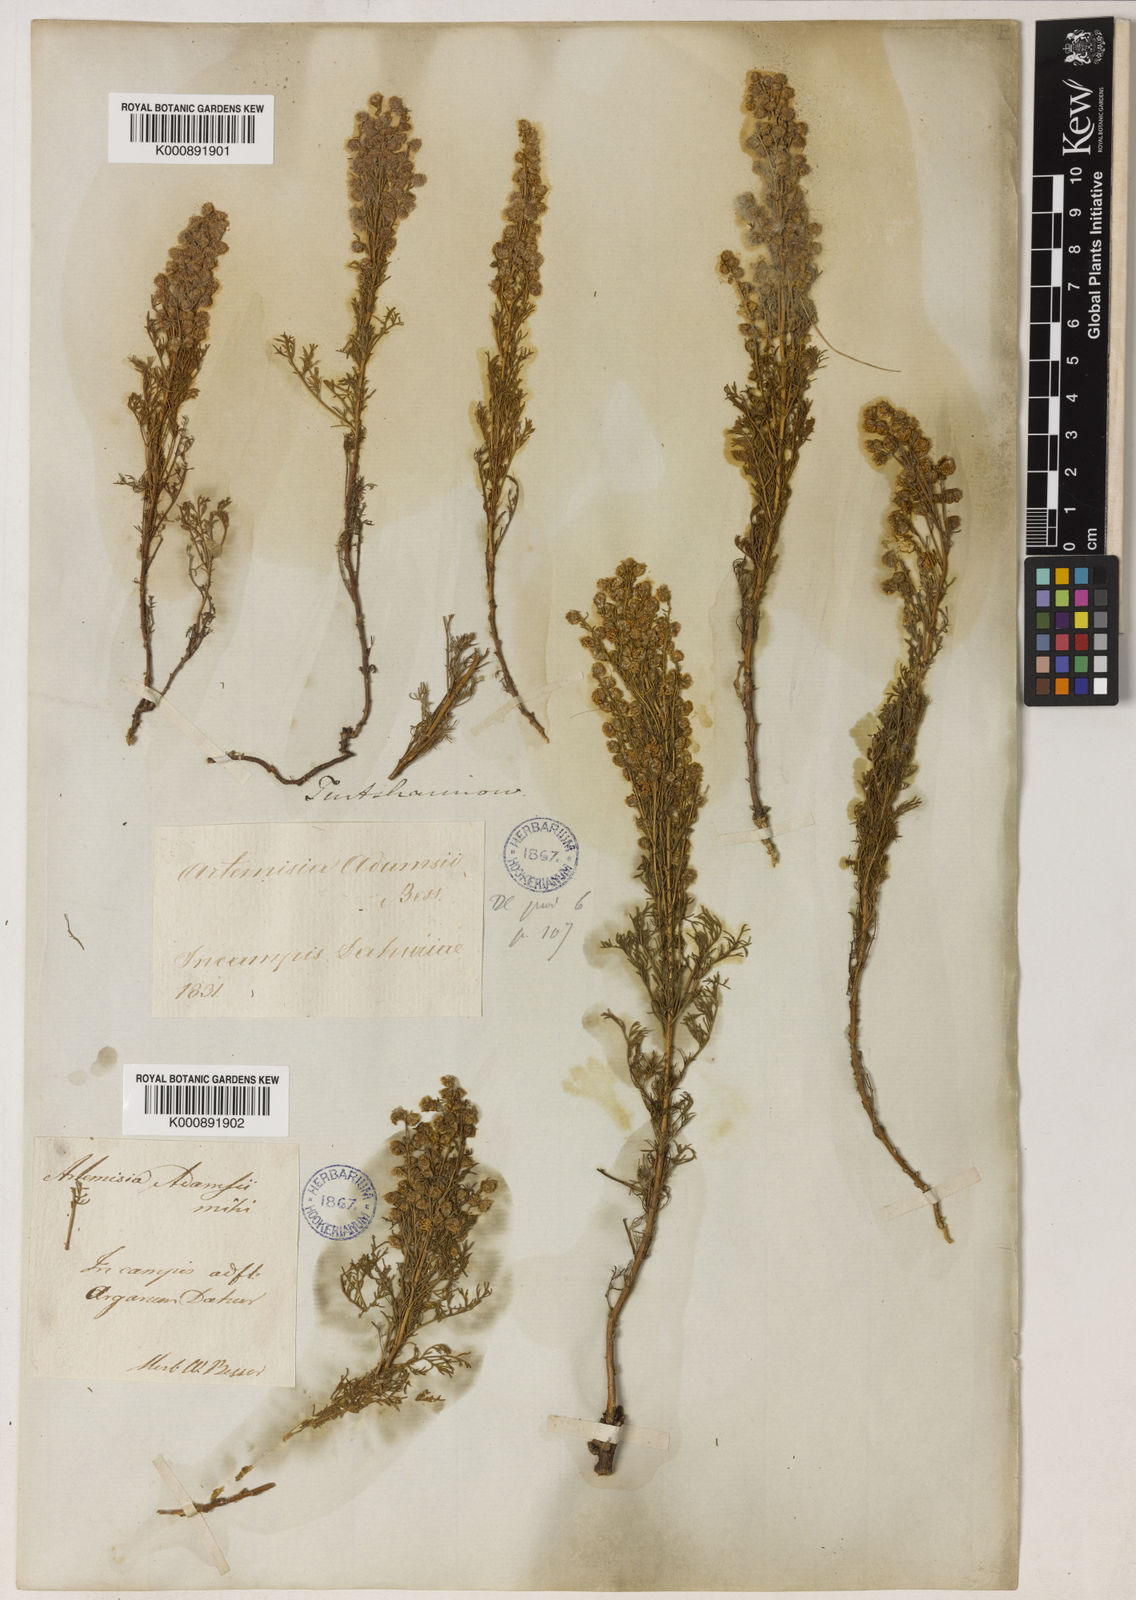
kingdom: Plantae
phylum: Tracheophyta
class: Magnoliopsida
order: Asterales
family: Asteraceae
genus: Artemisia
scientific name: Artemisia adamsii
